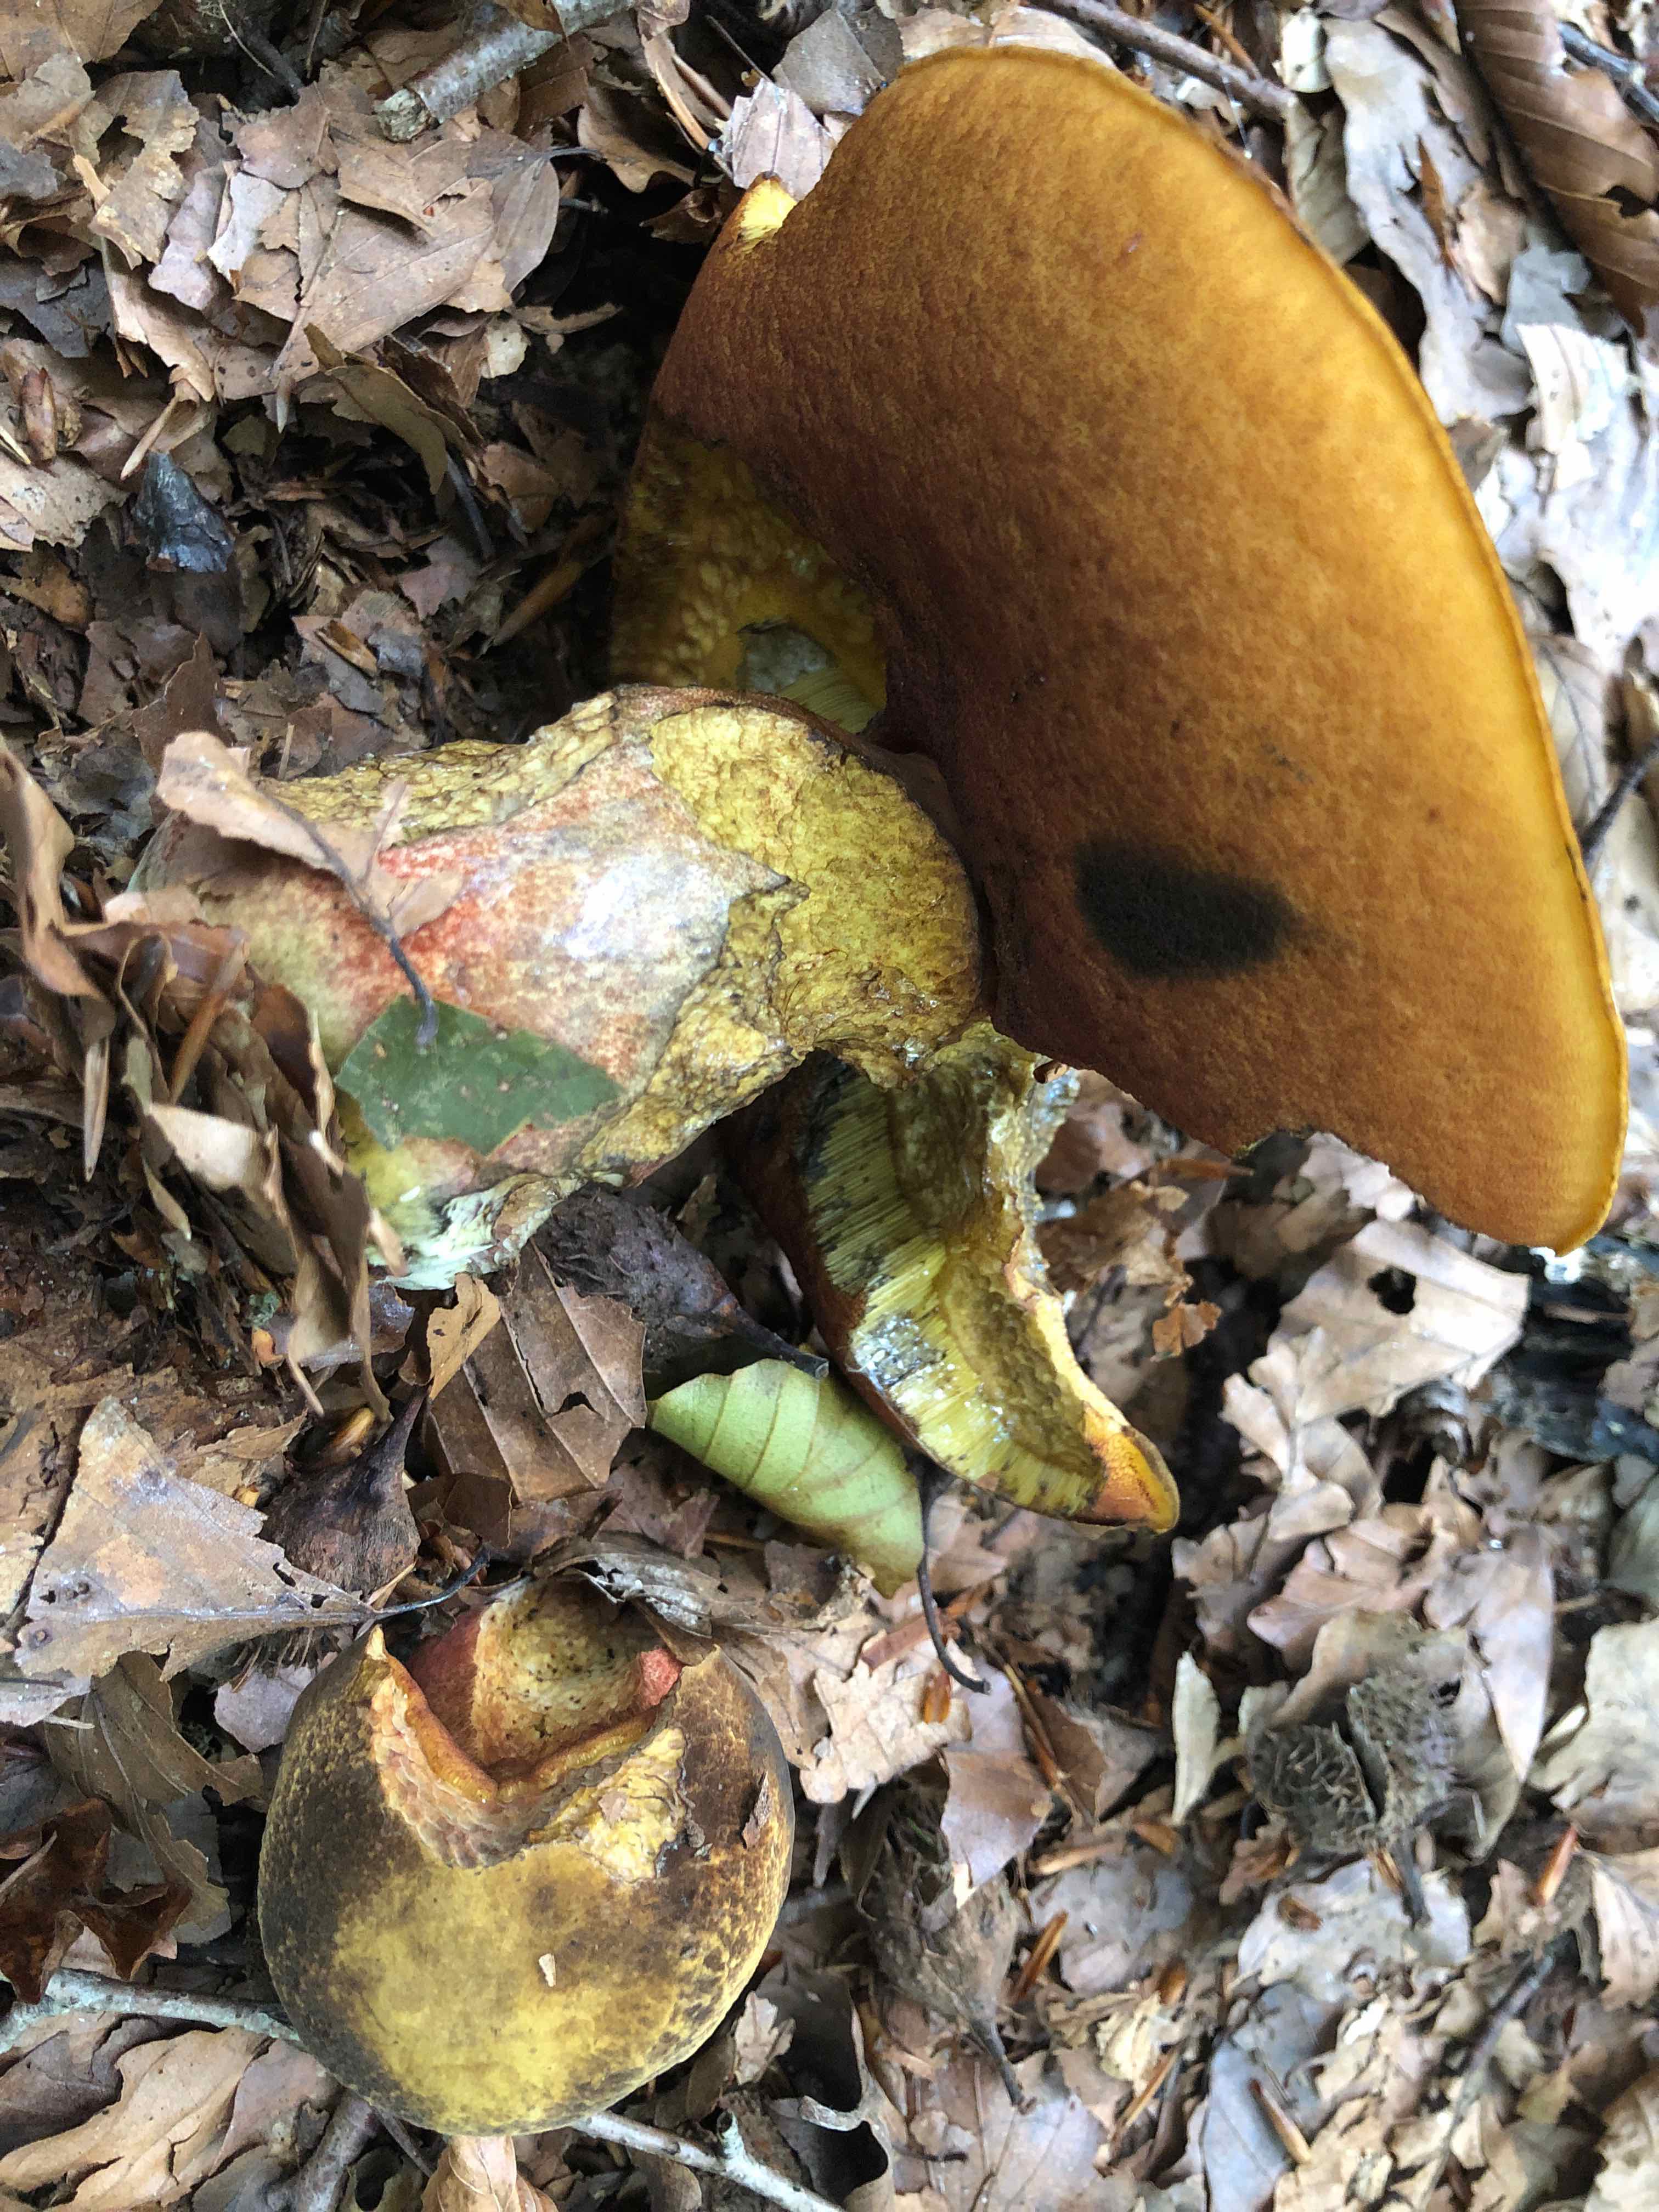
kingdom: Fungi
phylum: Basidiomycota
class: Agaricomycetes
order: Boletales
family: Boletaceae
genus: Neoboletus
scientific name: Neoboletus erythropus
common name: punktstokket indigorørhat
